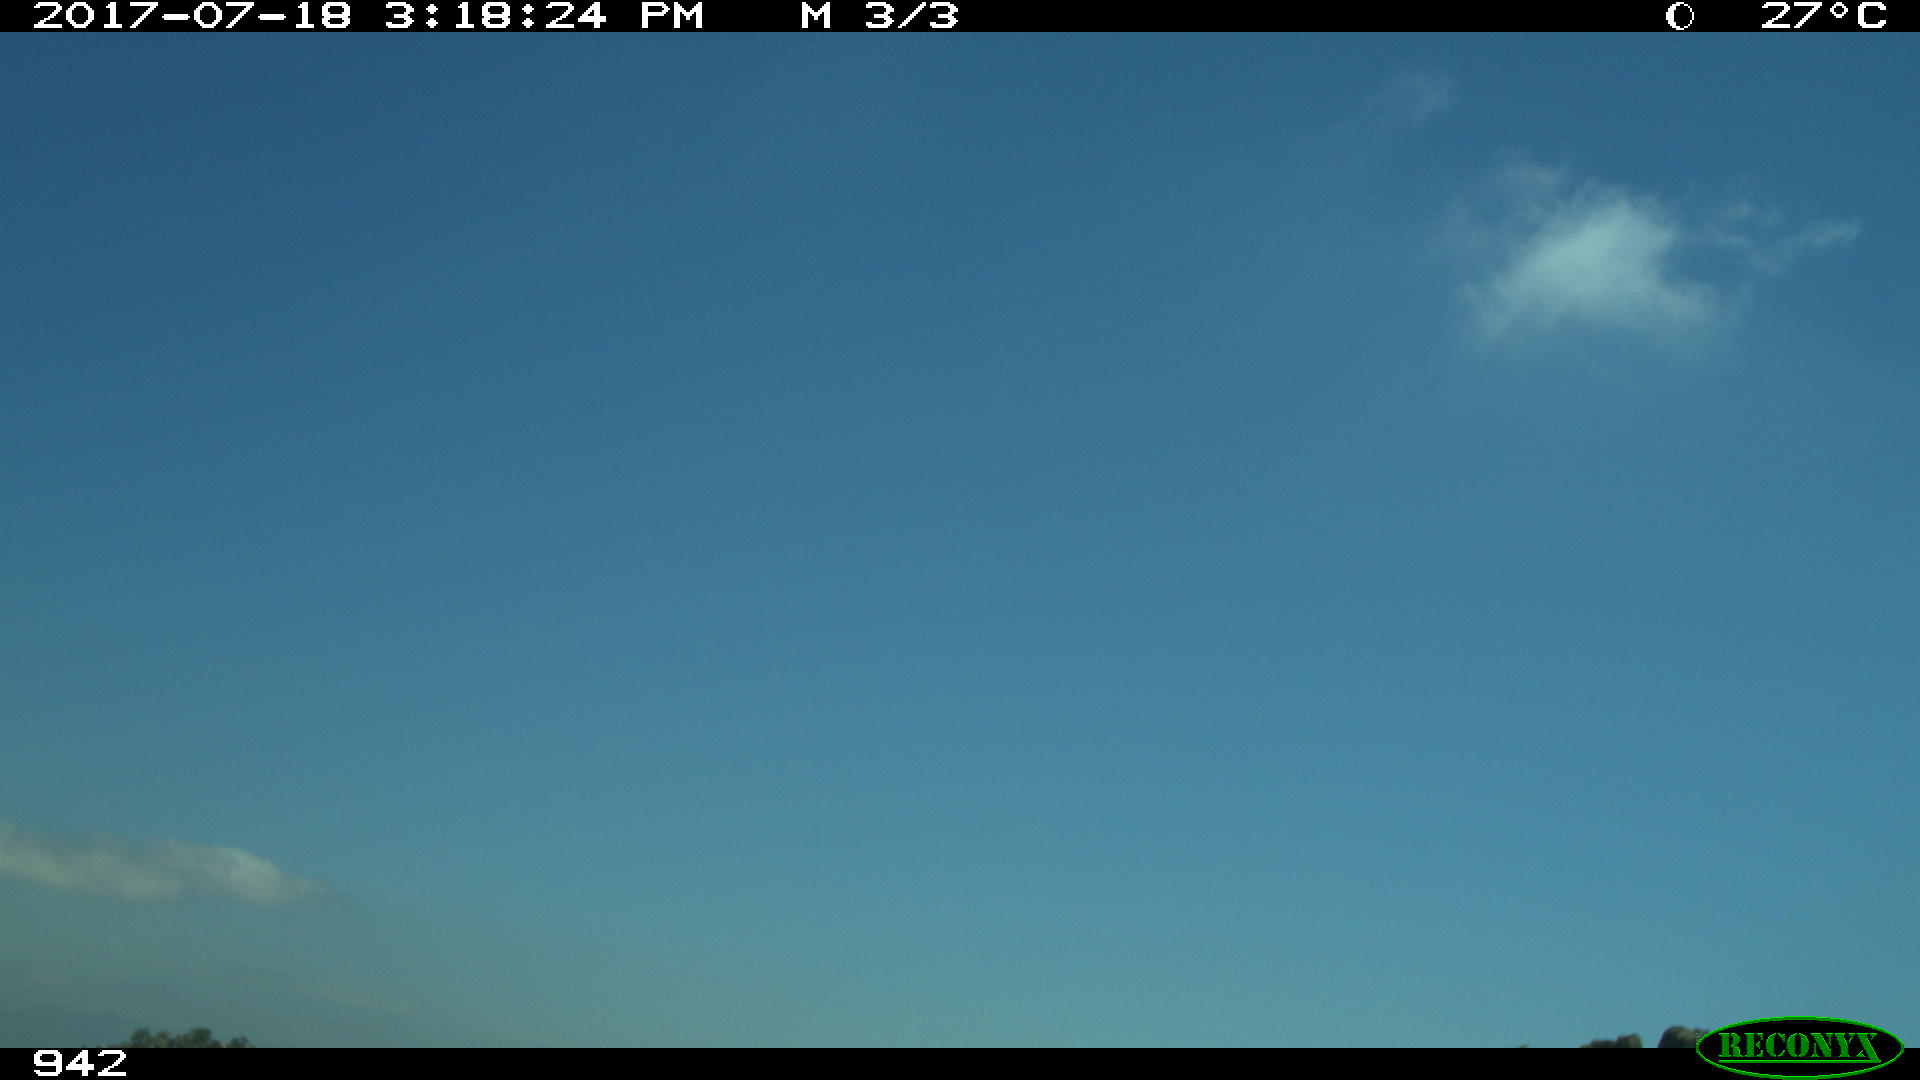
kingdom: Animalia
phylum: Chordata
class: Mammalia
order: Artiodactyla
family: Bovidae
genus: Bos
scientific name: Bos taurus
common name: Domesticated cattle
